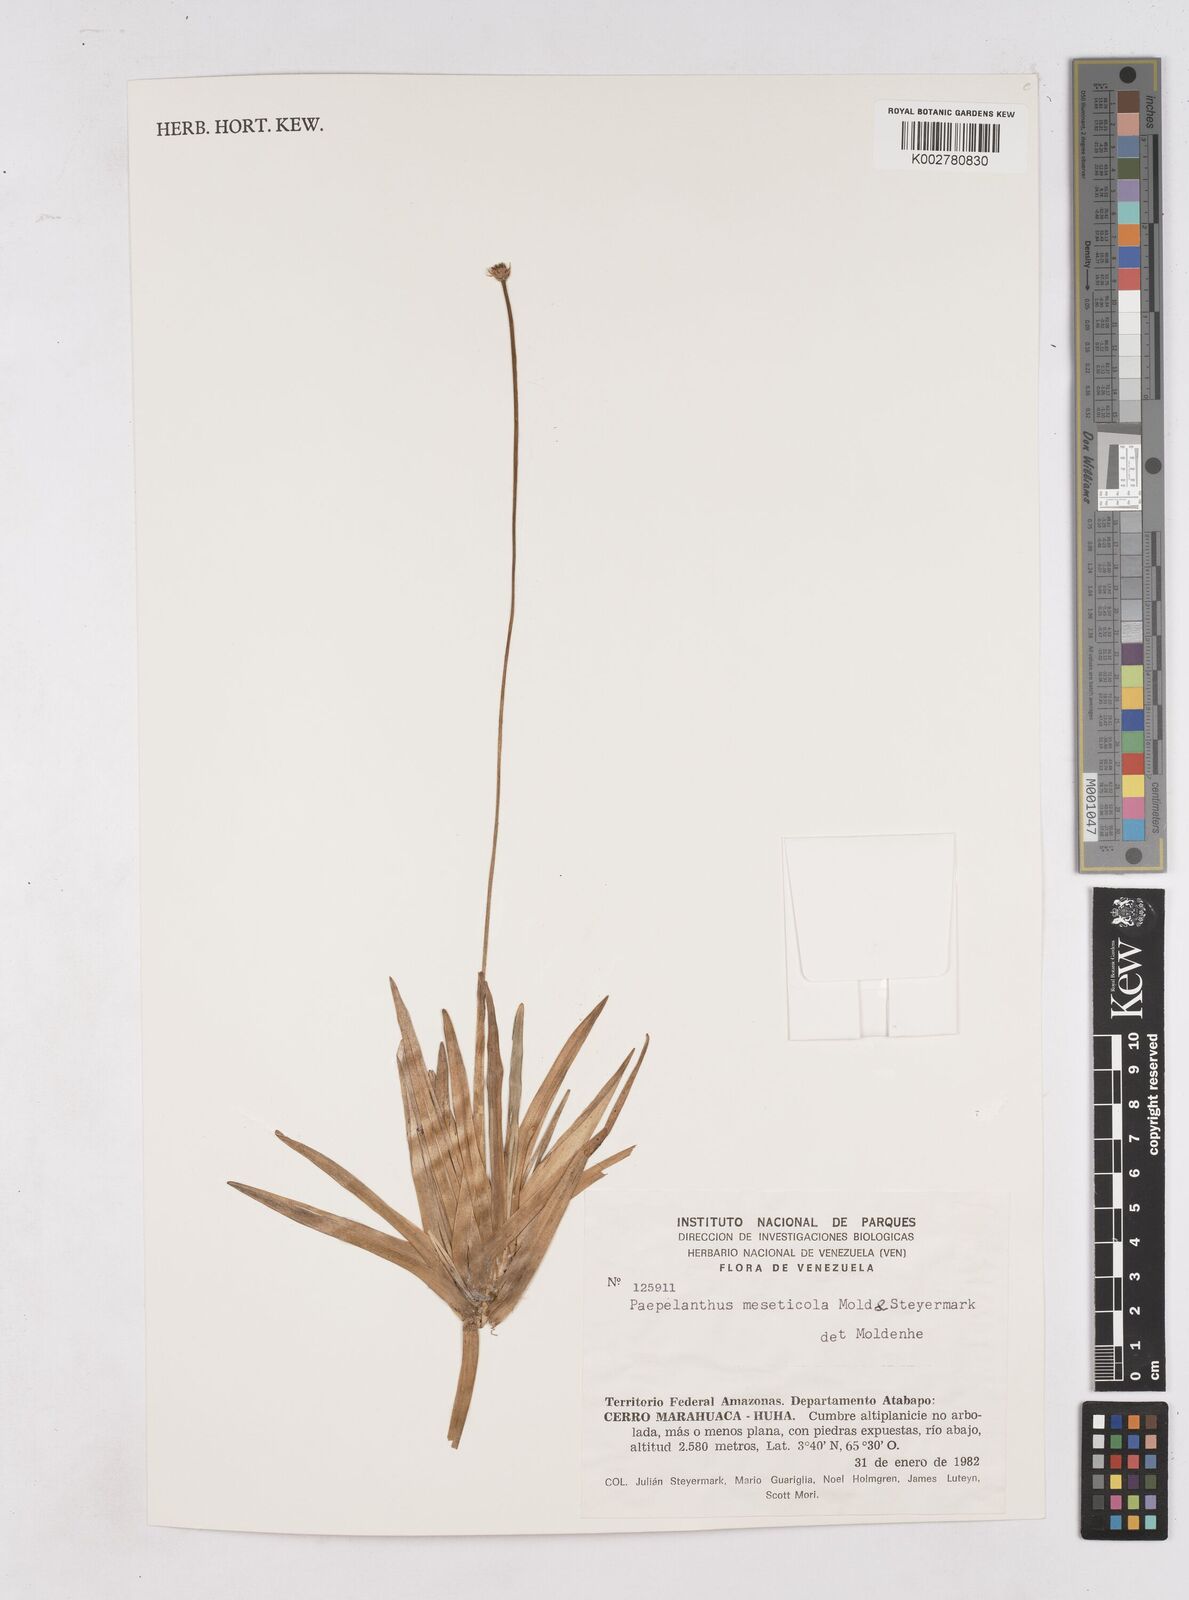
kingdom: Plantae
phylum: Tracheophyta
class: Liliopsida
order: Poales
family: Eriocaulaceae
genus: Leiothrix
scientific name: Leiothrix flavescens
